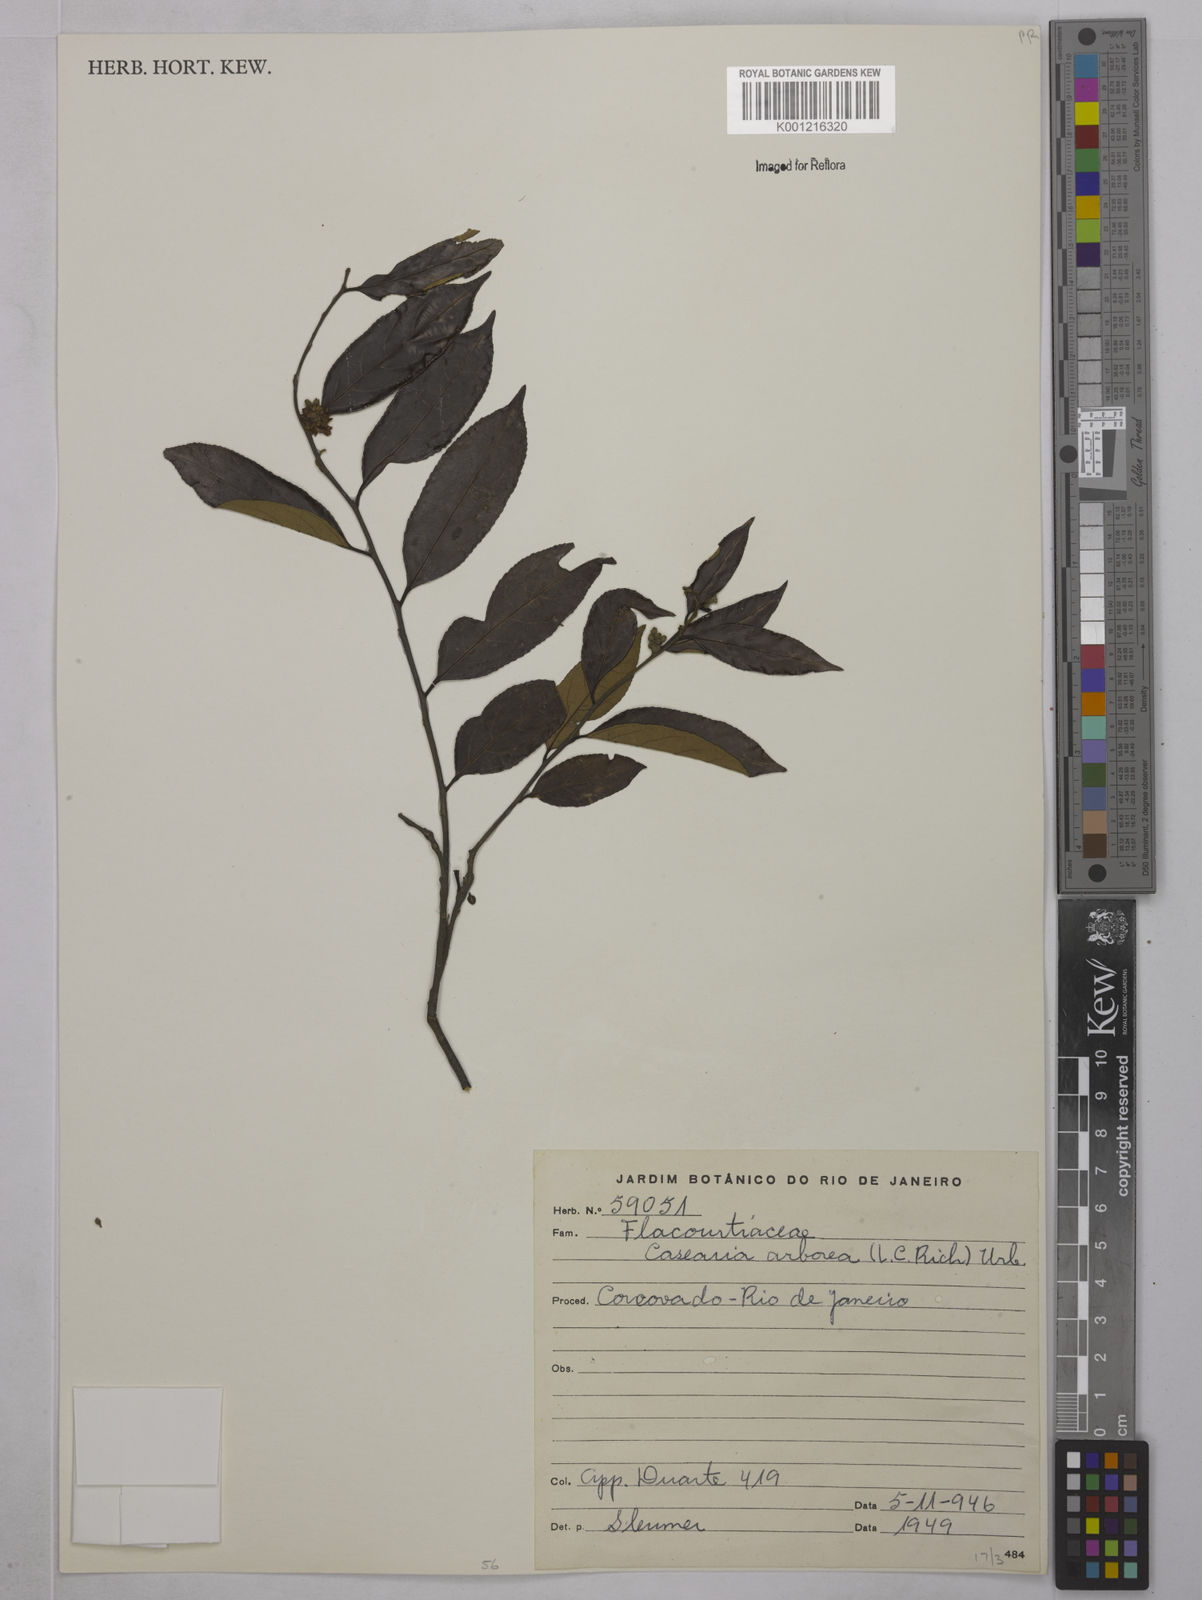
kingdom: Plantae
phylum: Tracheophyta
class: Magnoliopsida
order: Malpighiales
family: Salicaceae
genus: Casearia
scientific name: Casearia arborea
